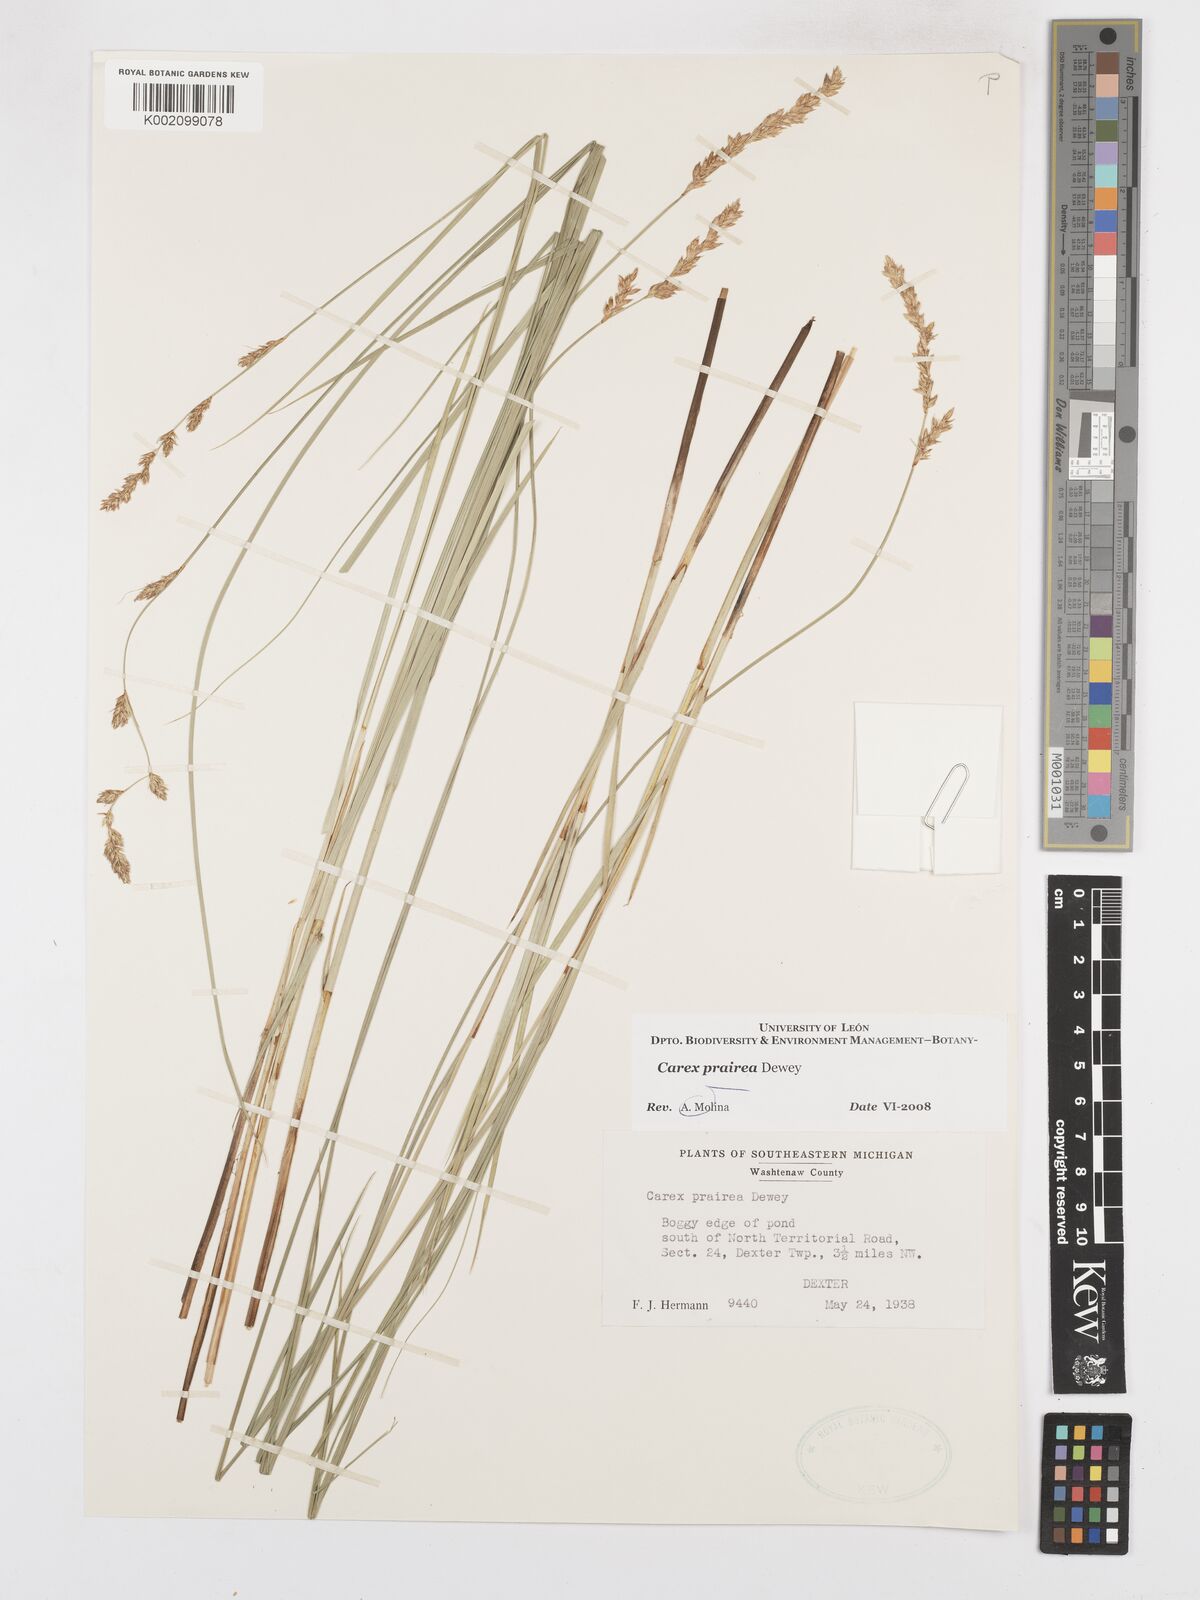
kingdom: Plantae
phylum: Tracheophyta
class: Liliopsida
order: Poales
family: Cyperaceae
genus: Carex
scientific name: Carex prairea
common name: Prairie sedge
